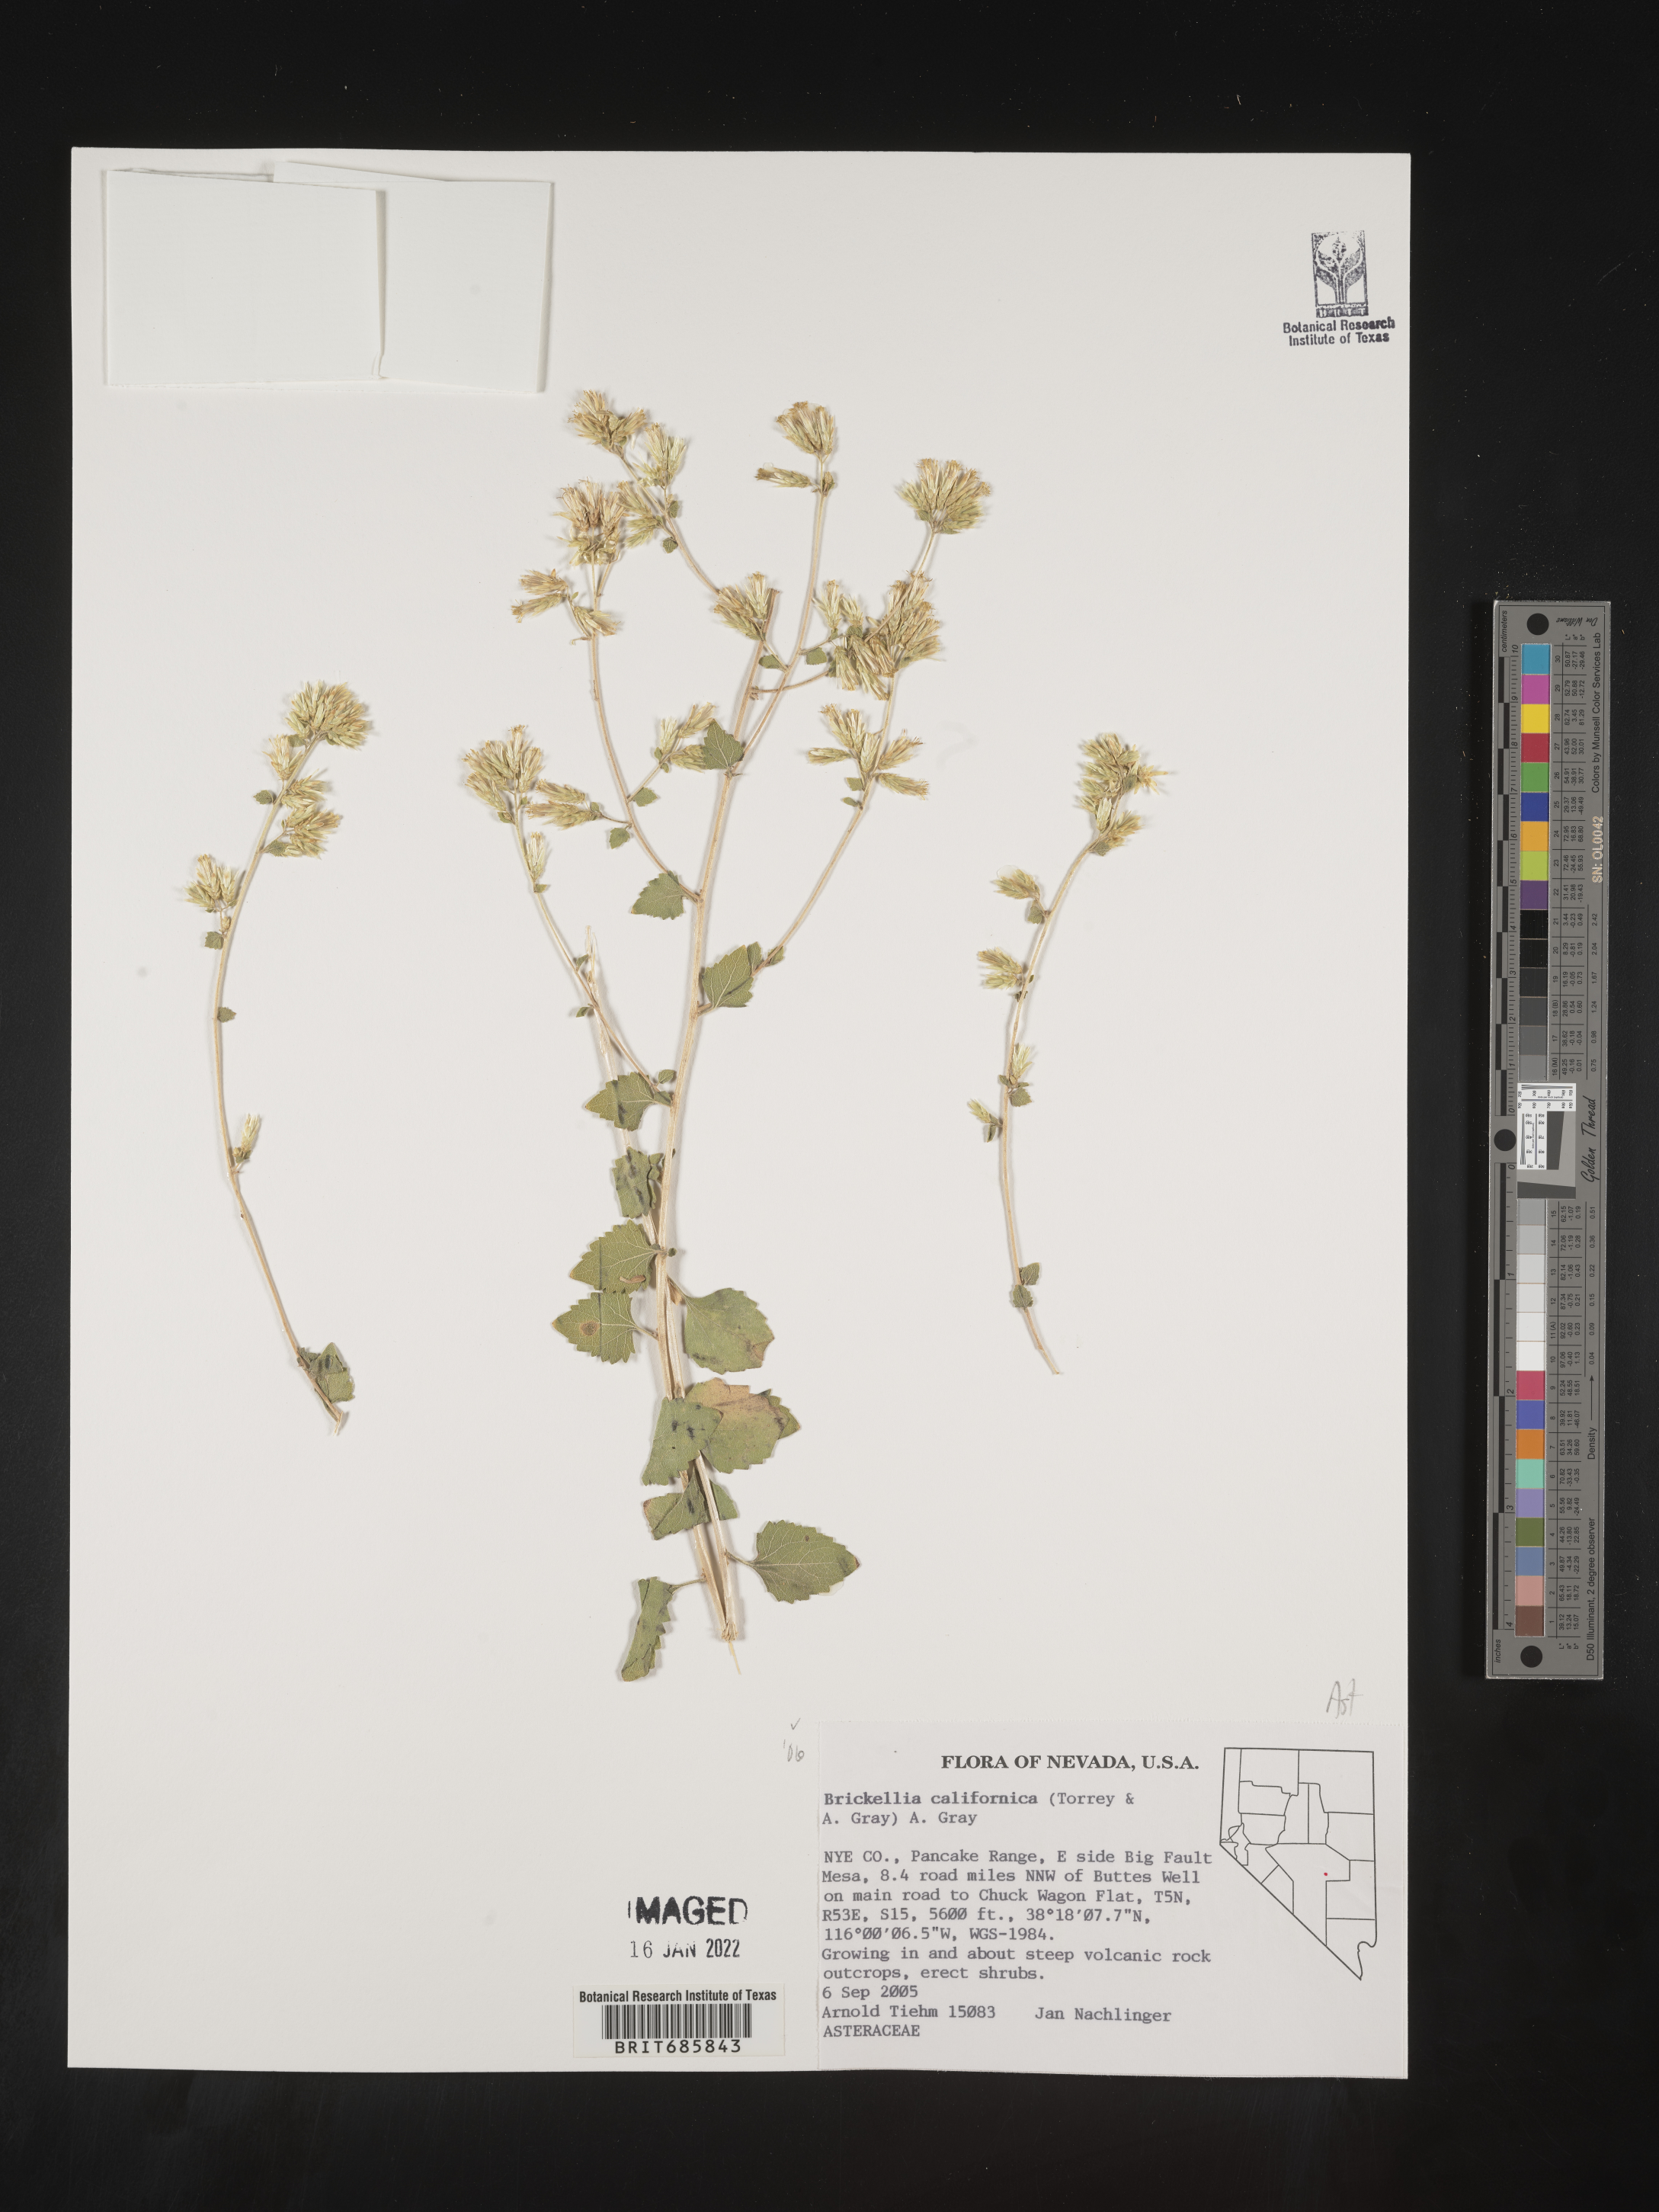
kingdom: Plantae
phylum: Tracheophyta
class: Magnoliopsida
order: Asterales
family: Asteraceae
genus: Brickellia
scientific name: Brickellia californica
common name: California brickellbush
